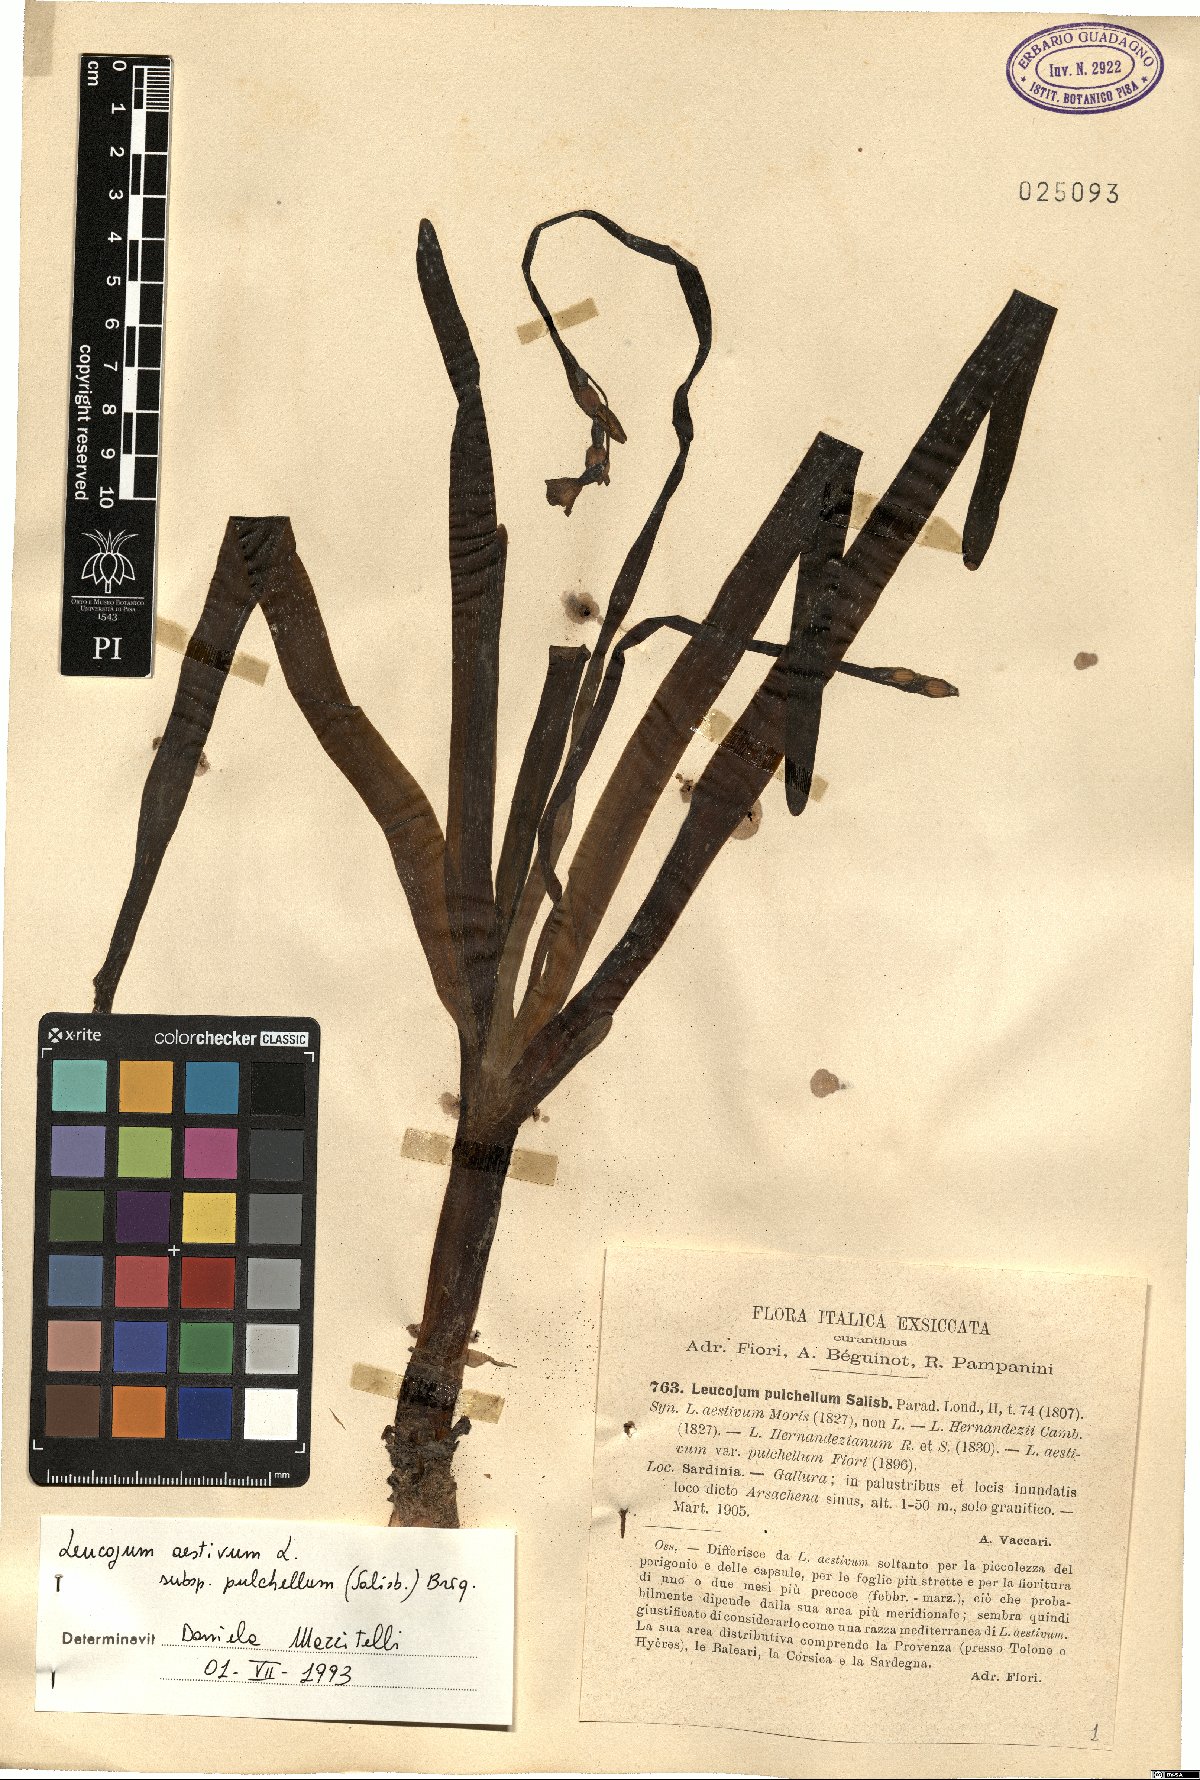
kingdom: Plantae
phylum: Tracheophyta
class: Liliopsida
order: Asparagales
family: Amaryllidaceae
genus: Leucojum
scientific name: Leucojum aestivum
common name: Summer snowflake
